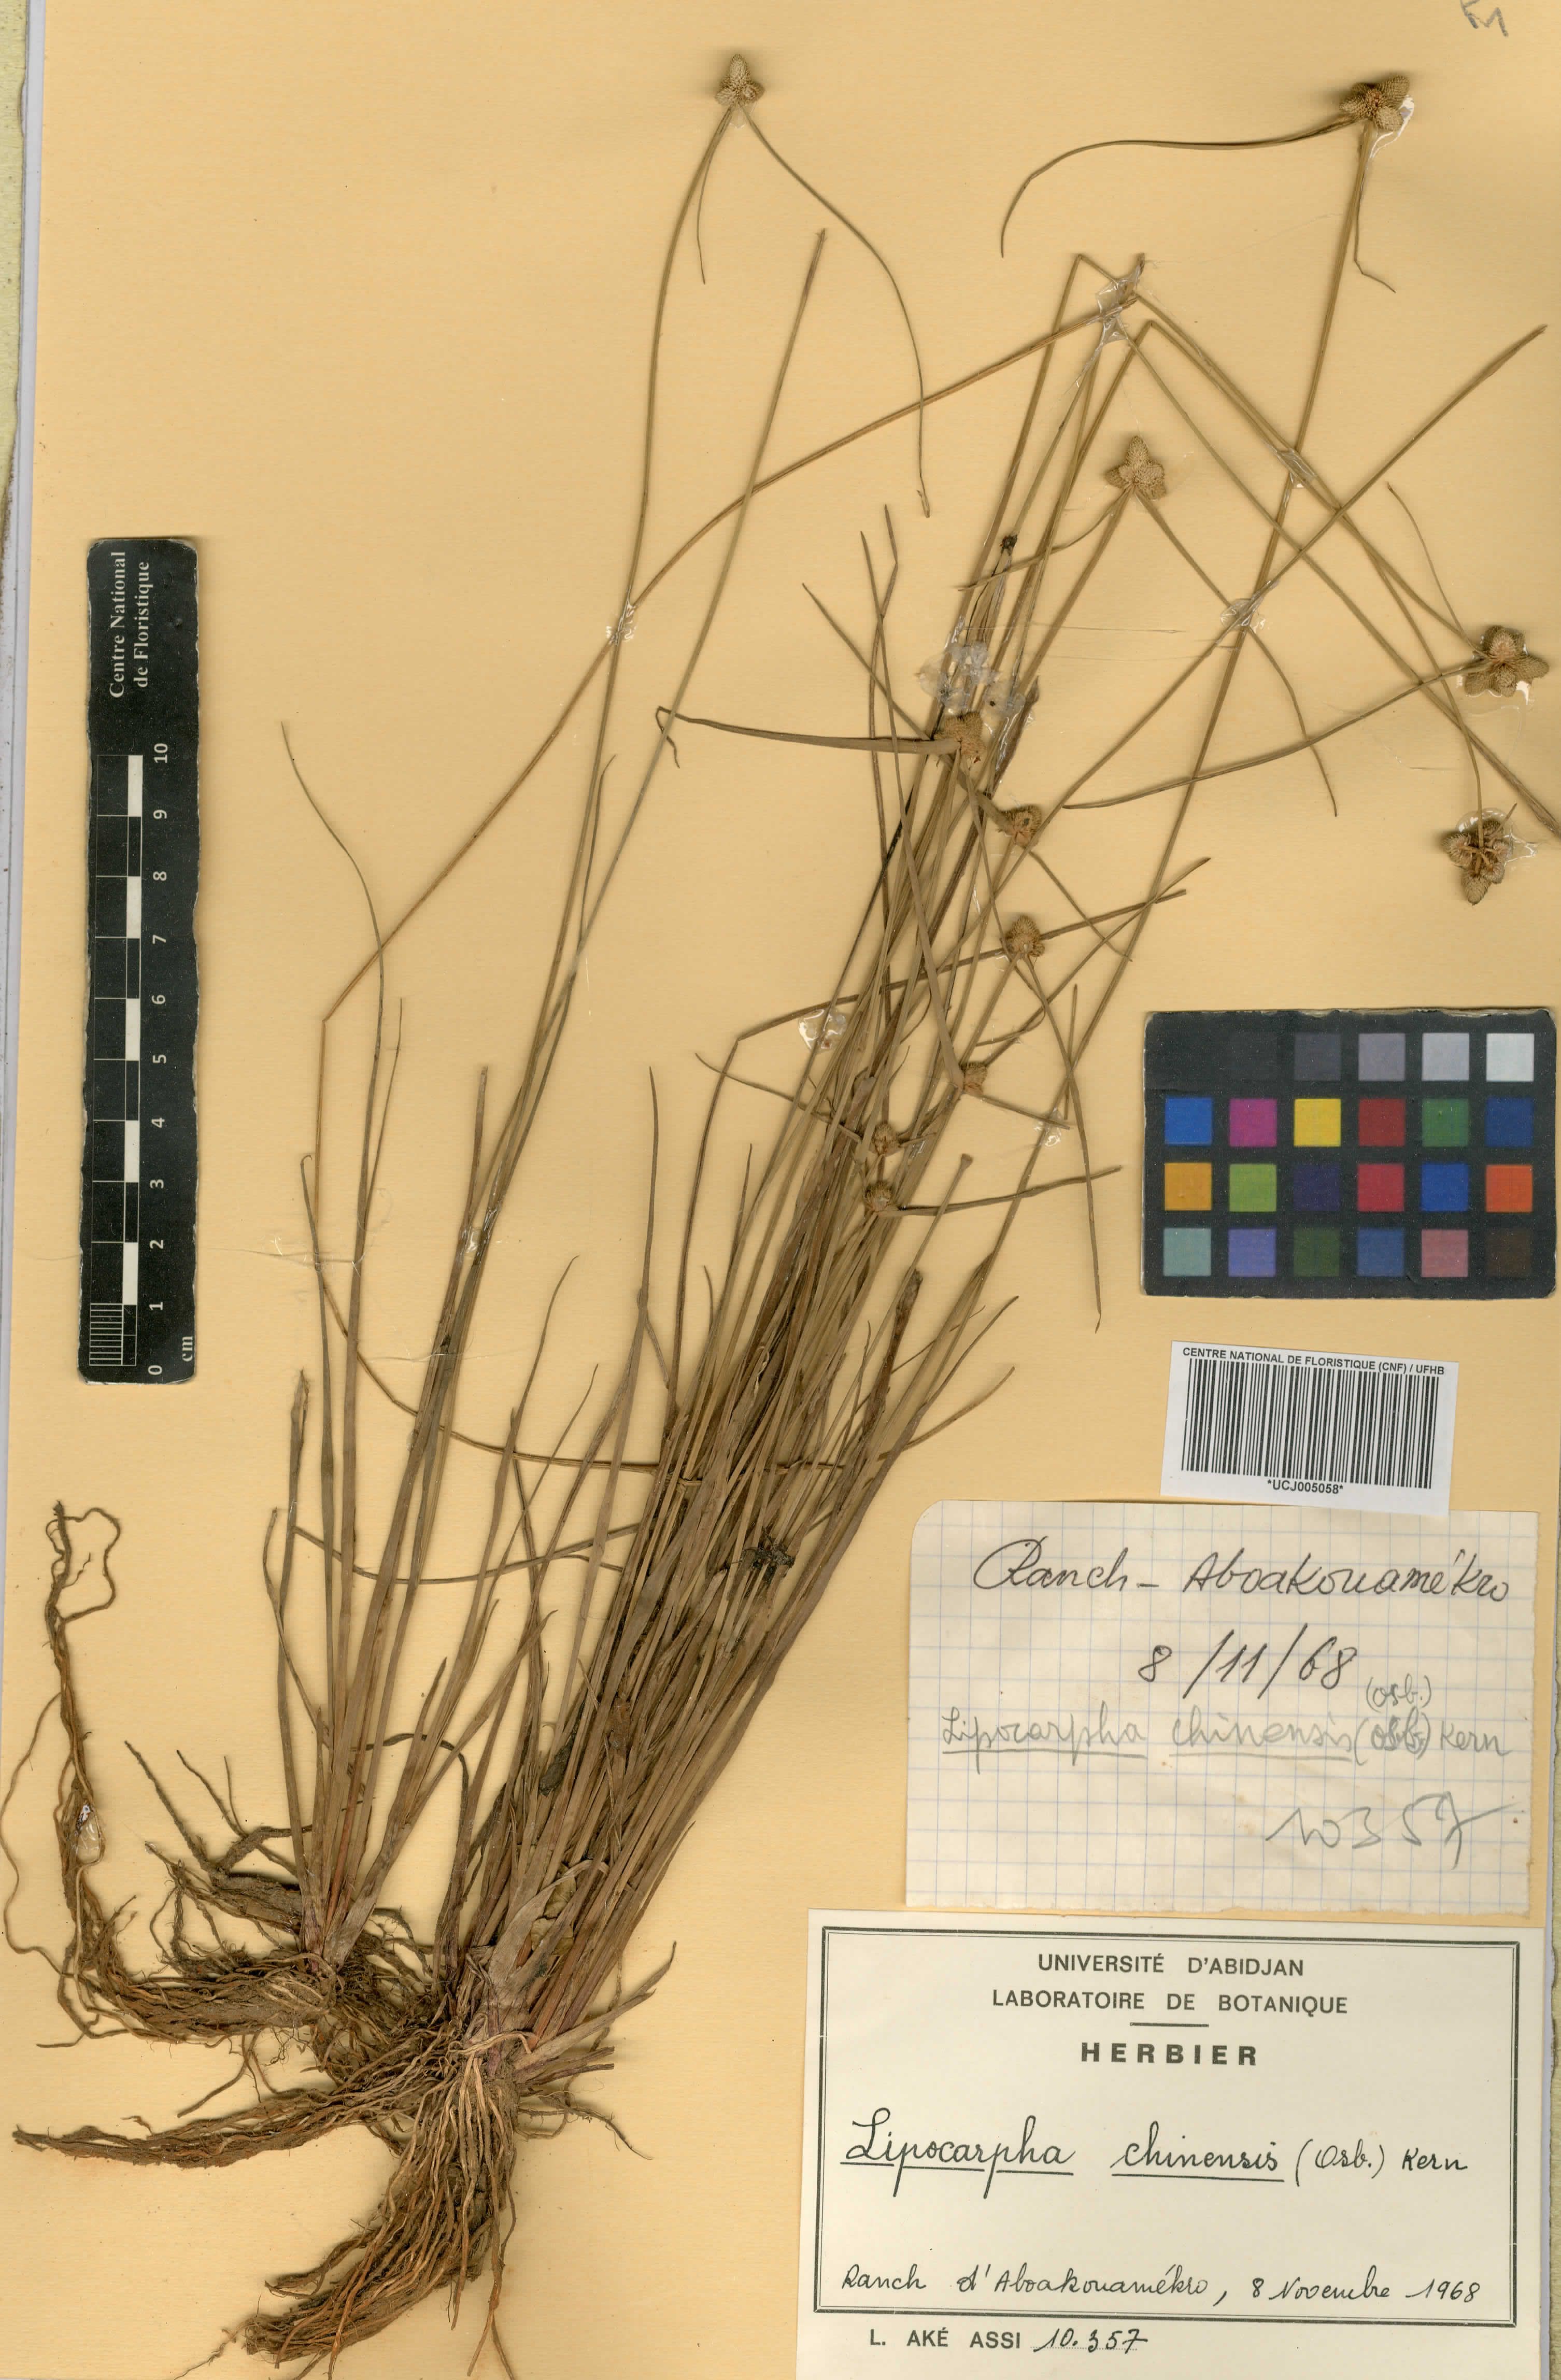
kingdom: Plantae
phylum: Tracheophyta
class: Liliopsida
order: Poales
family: Cyperaceae
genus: Cyperus
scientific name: Cyperus albescens
